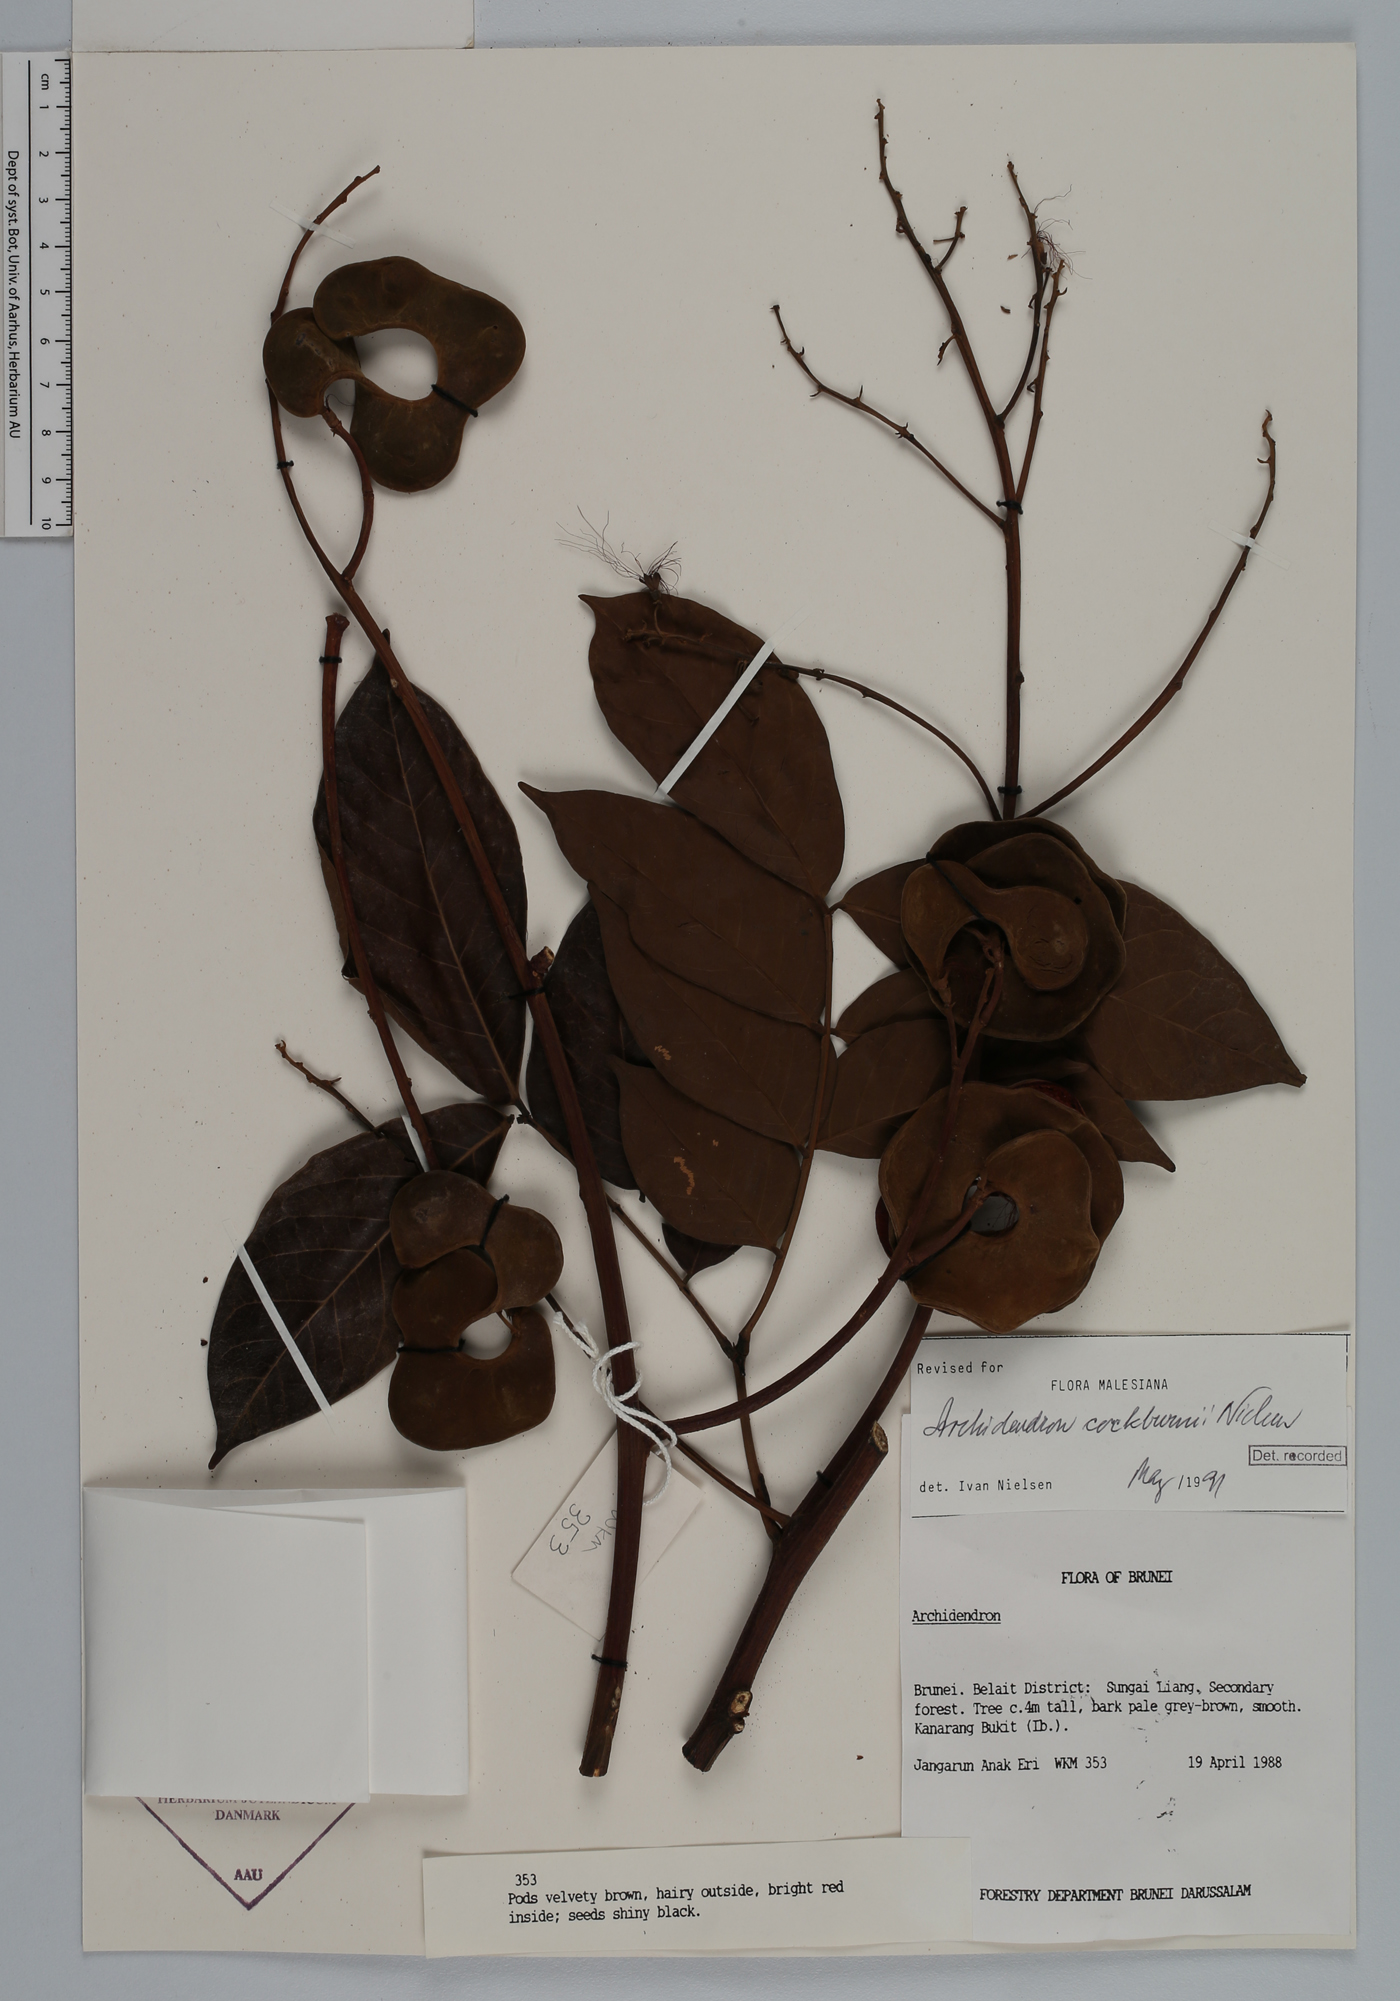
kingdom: Plantae
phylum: Tracheophyta
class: Magnoliopsida
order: Fabales
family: Fabaceae
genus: Archidendron
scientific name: Archidendron cockburnii
